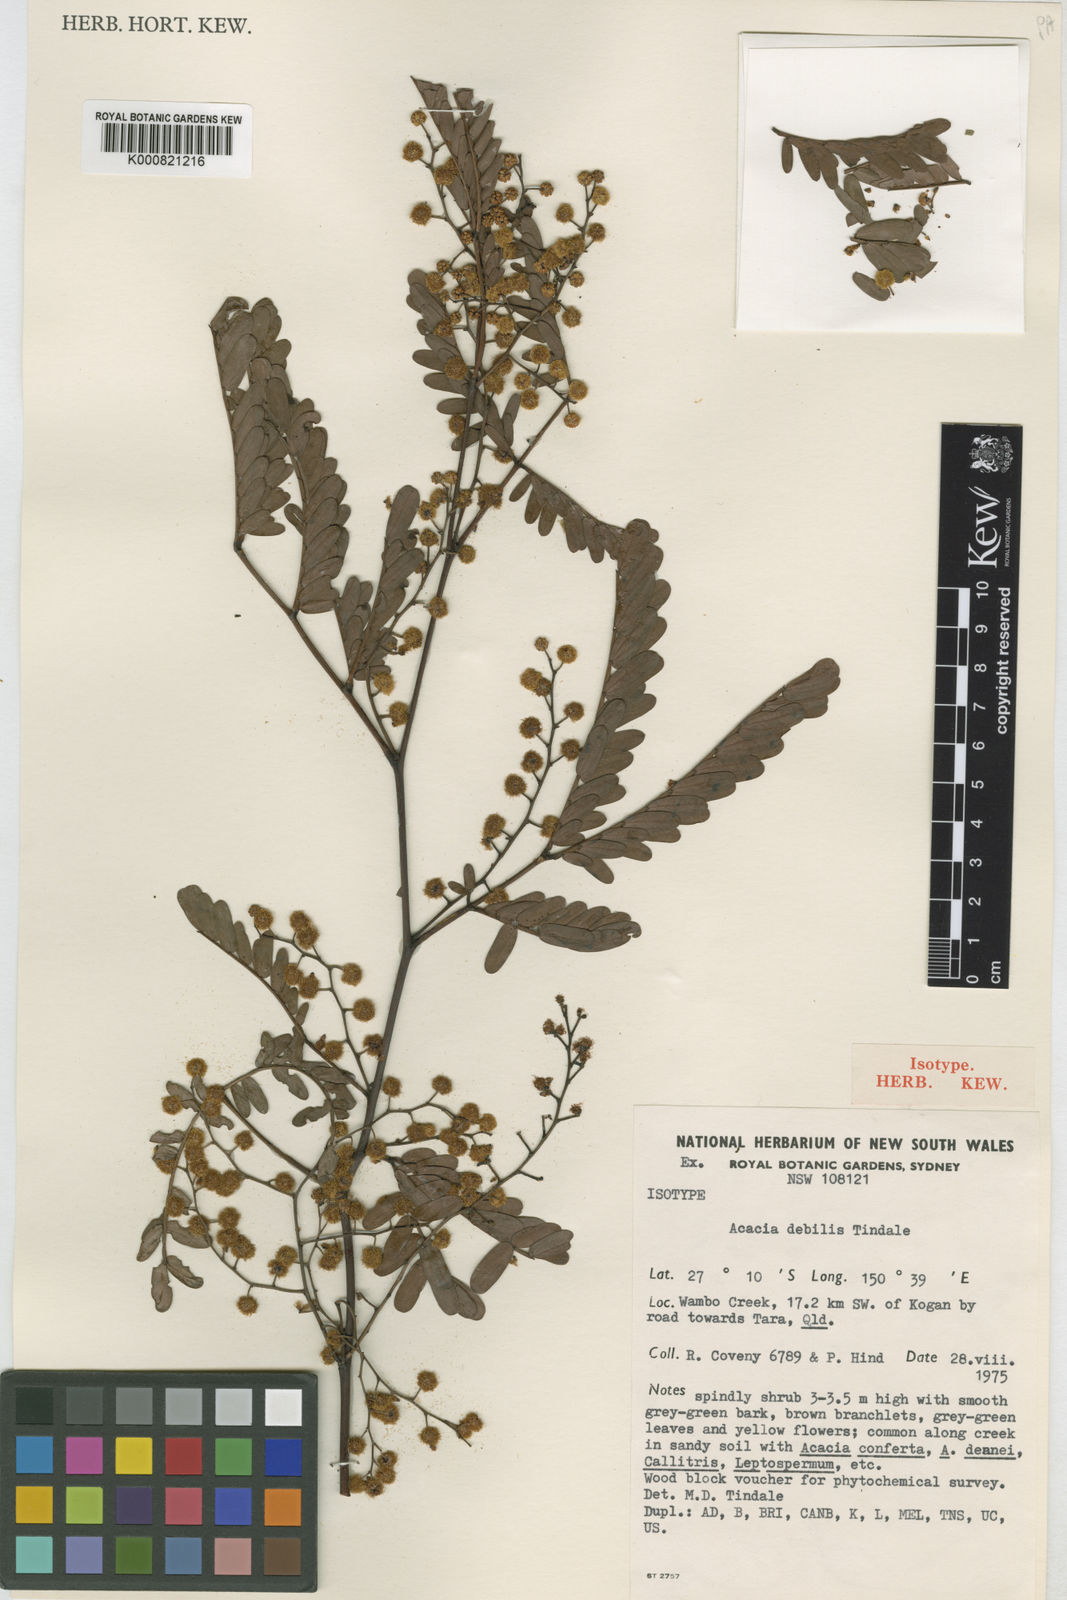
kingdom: Plantae
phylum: Tracheophyta
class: Magnoliopsida
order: Fabales
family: Fabaceae
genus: Acacia
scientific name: Acacia debilis
